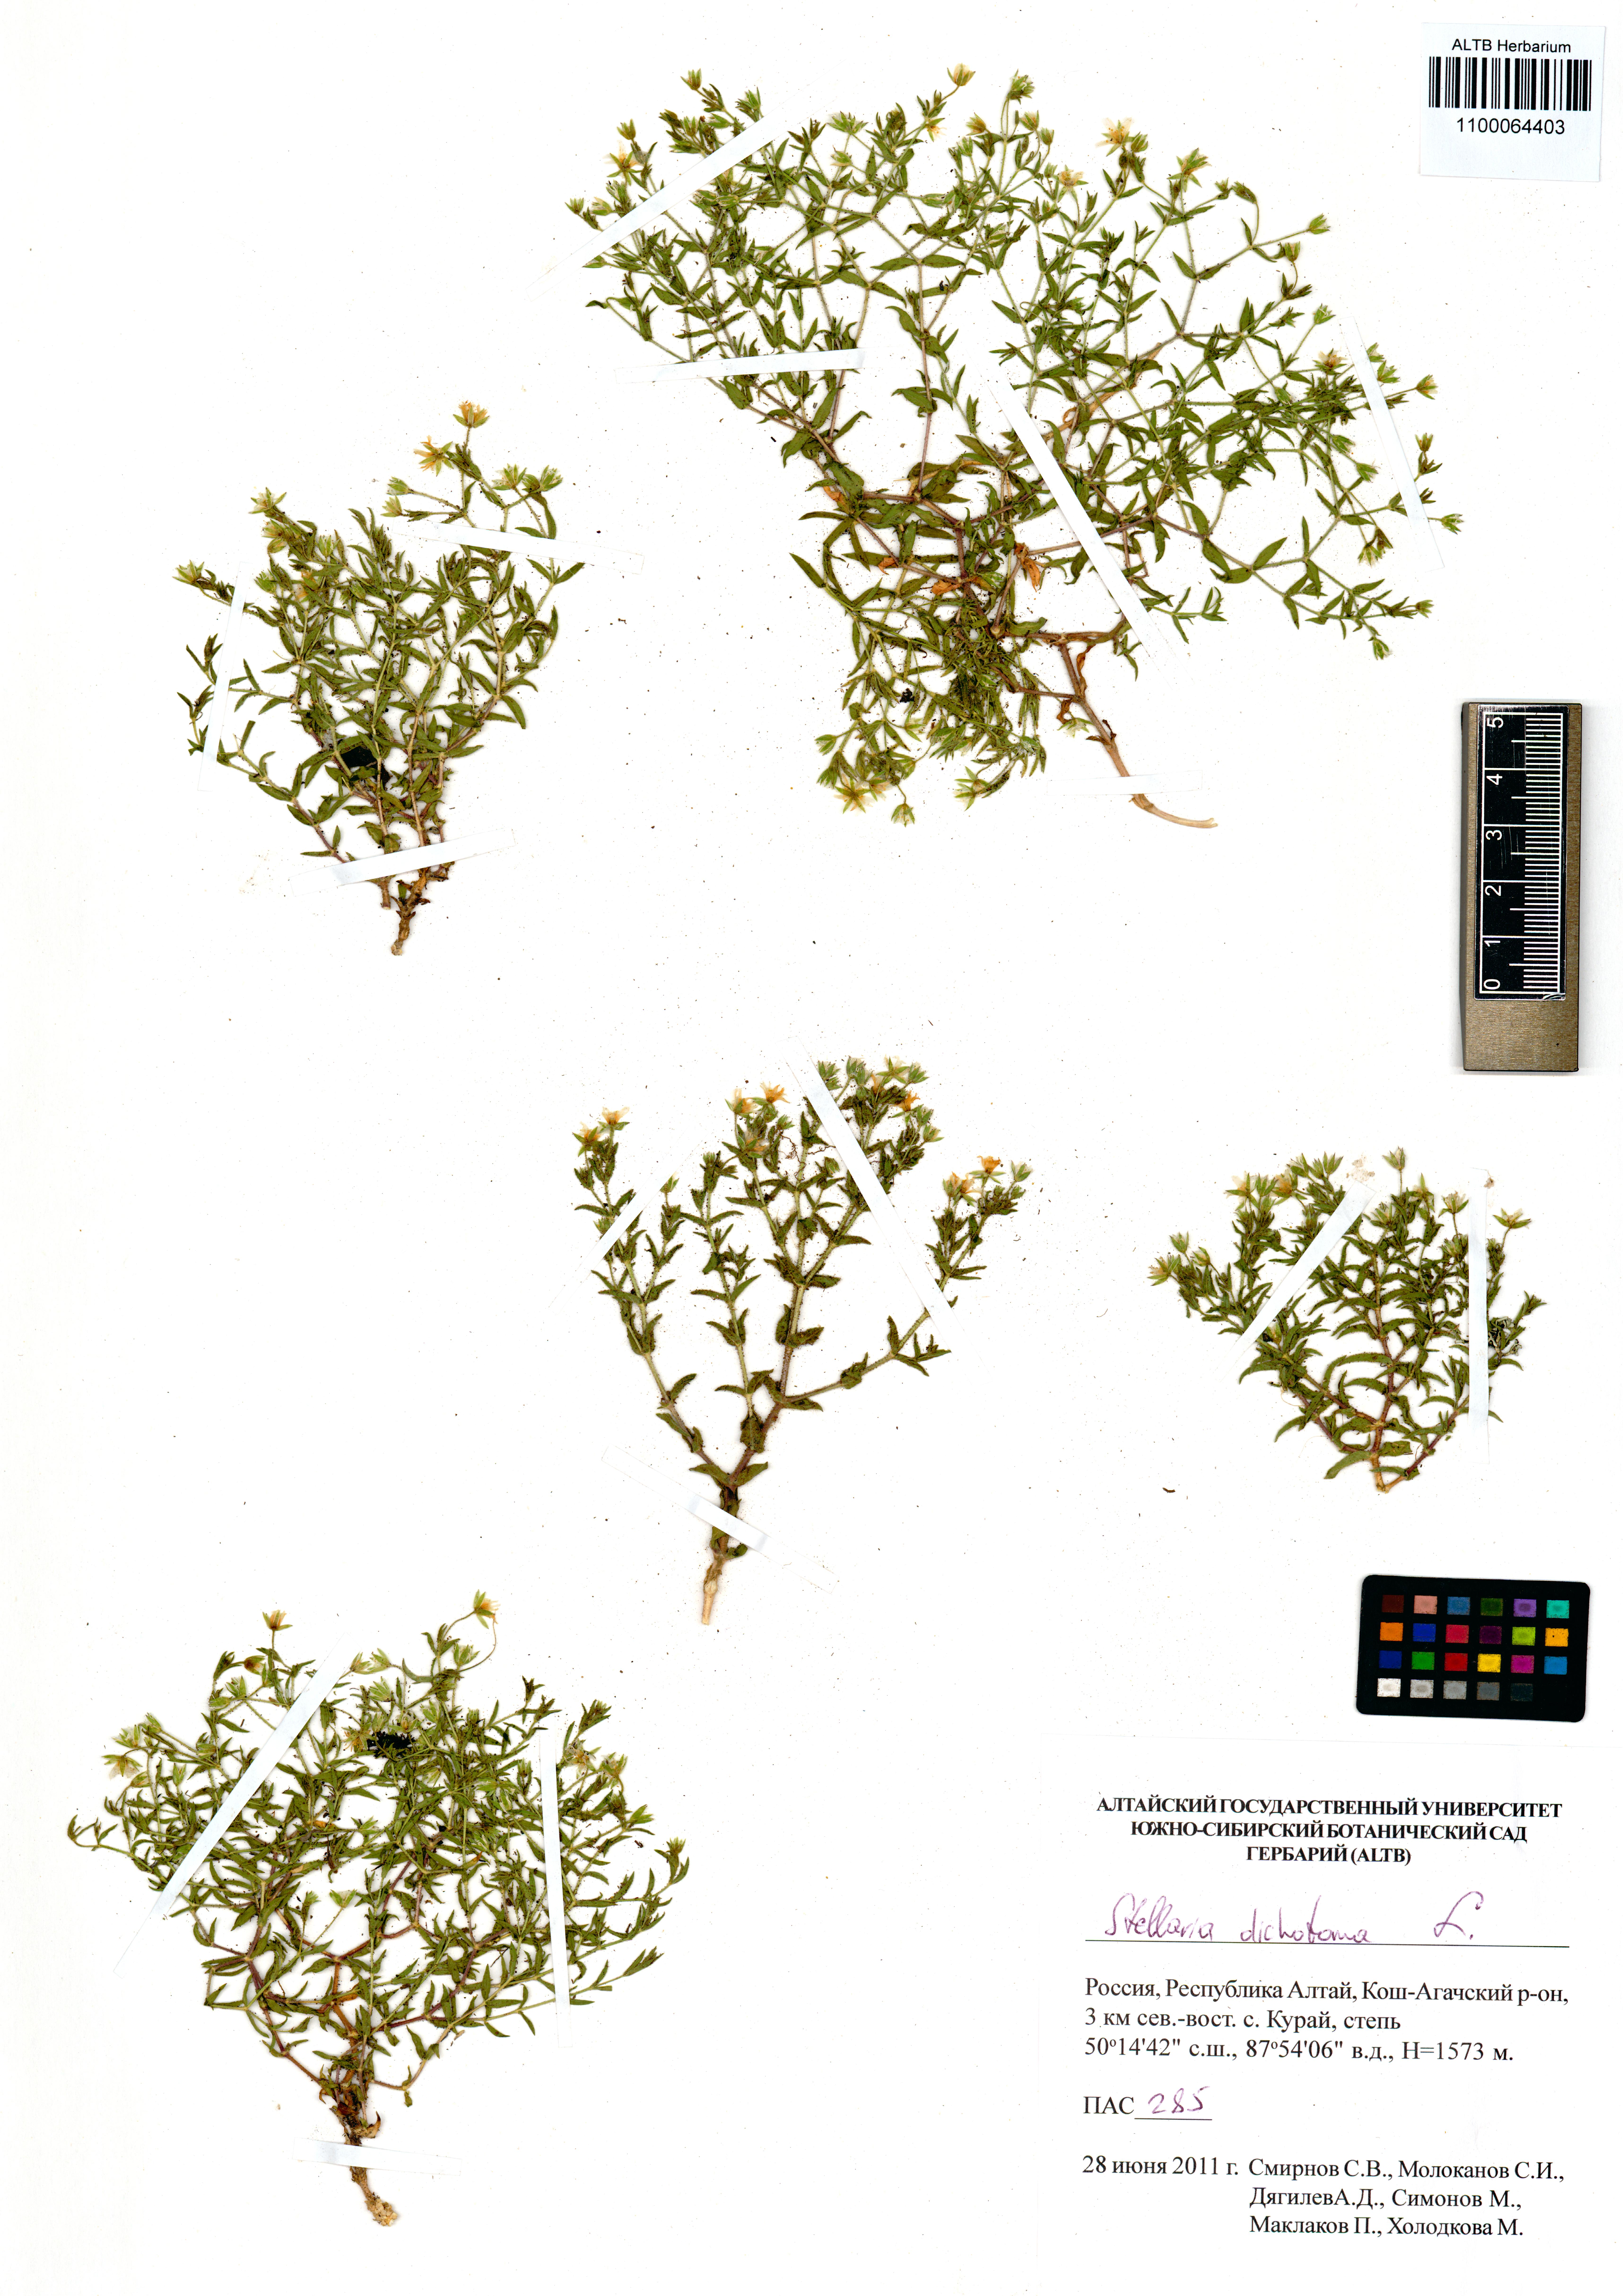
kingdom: Plantae
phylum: Tracheophyta
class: Magnoliopsida
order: Caryophyllales
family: Caryophyllaceae
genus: Mesostemma
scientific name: Mesostemma dichotomum
